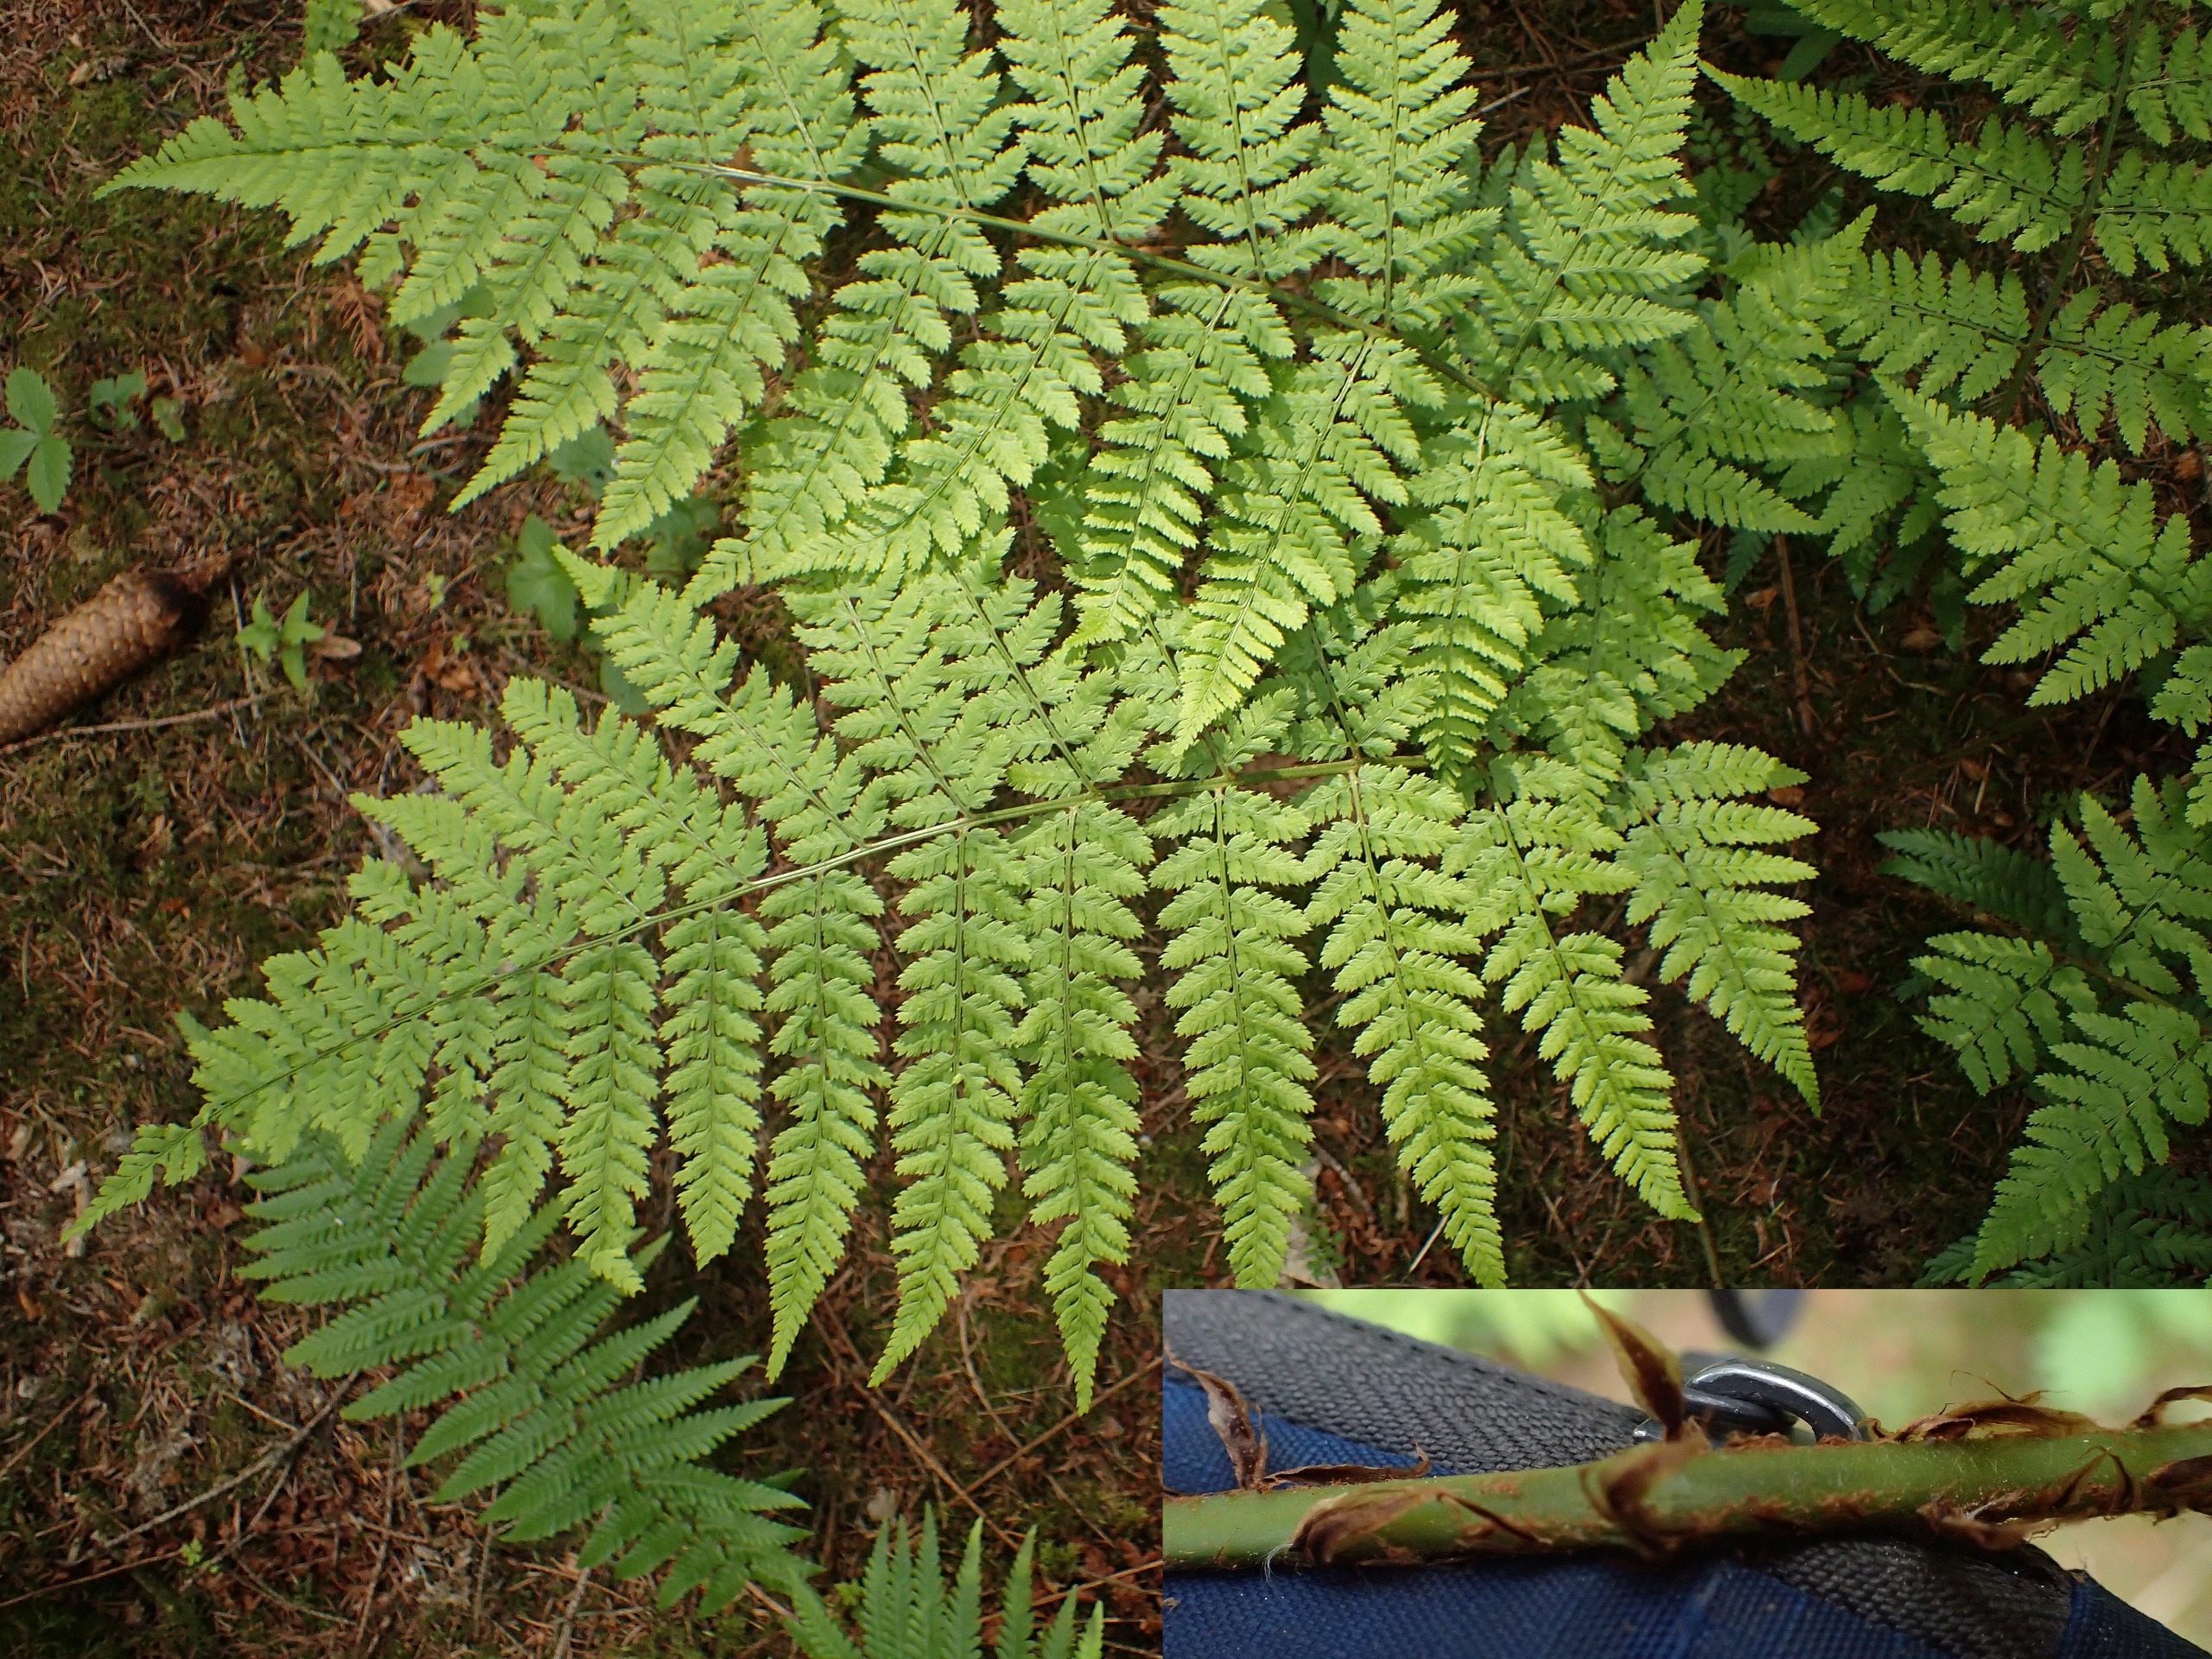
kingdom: Plantae
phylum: Tracheophyta
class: Polypodiopsida
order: Polypodiales
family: Dryopteridaceae
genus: Dryopteris
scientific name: Dryopteris dilatata
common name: Bredbladet mangeløv
